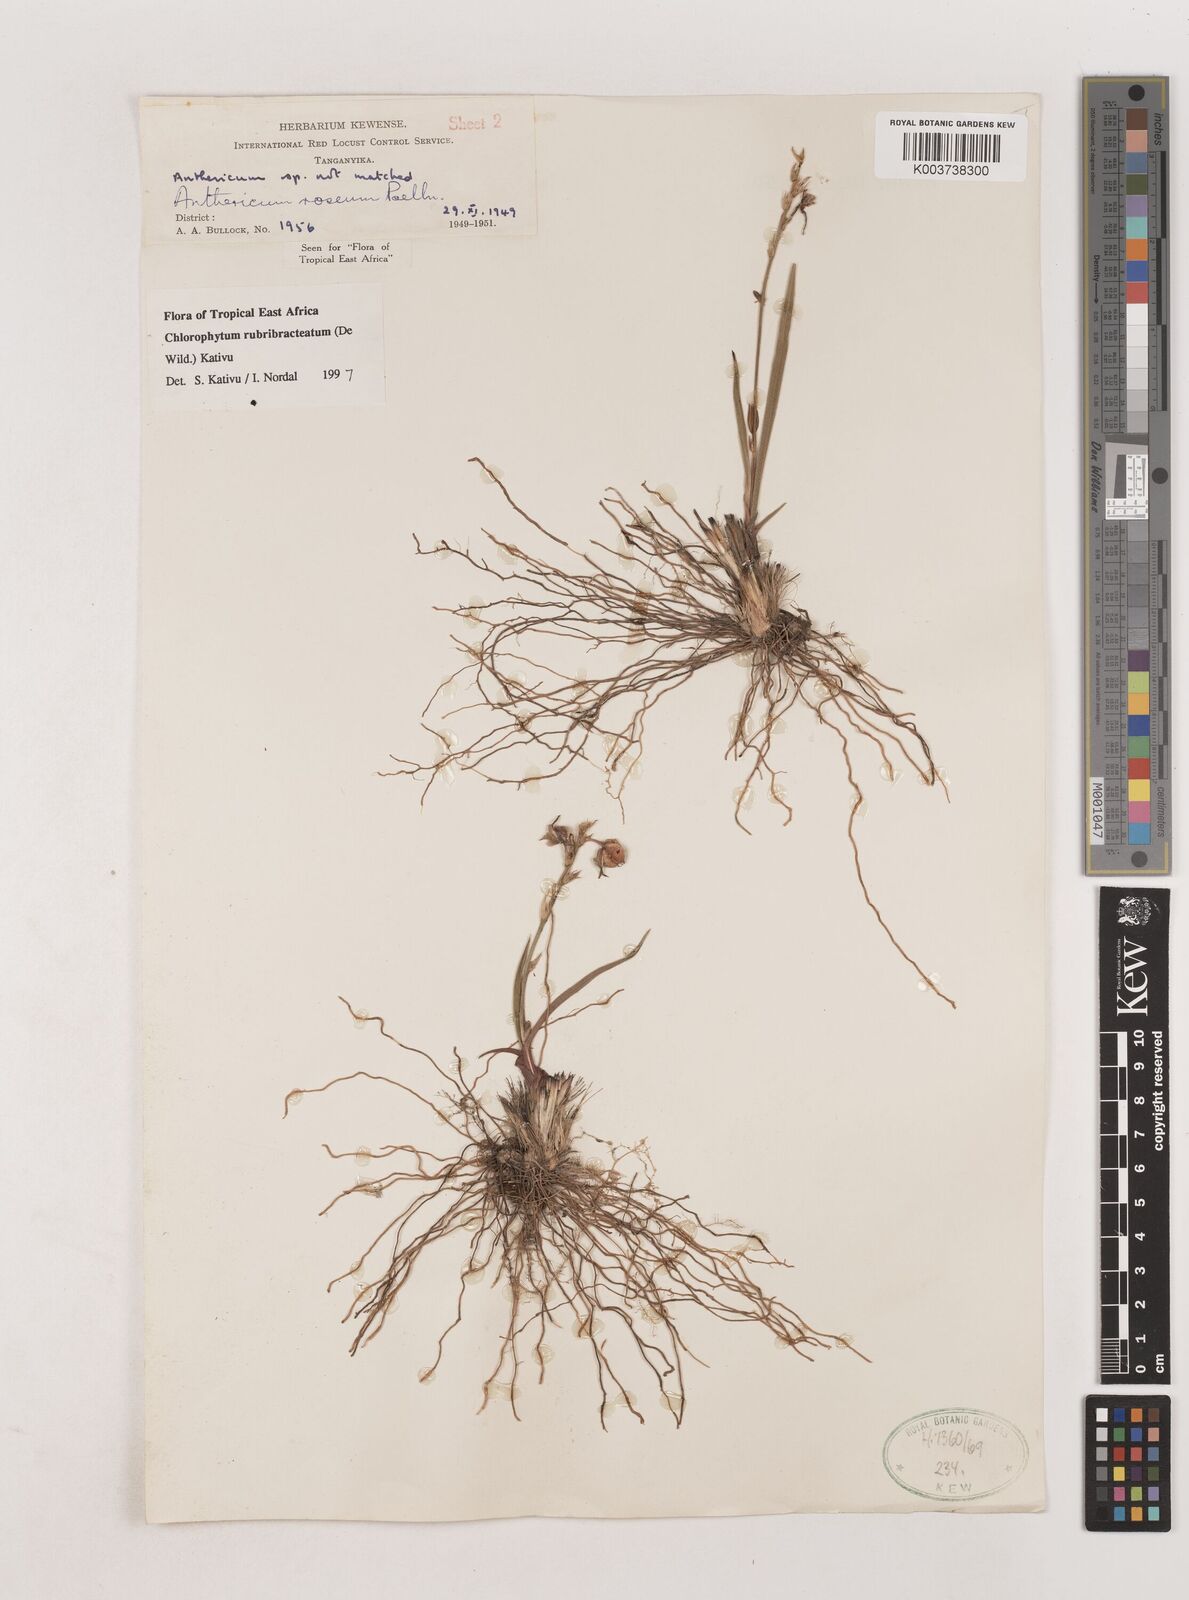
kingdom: Plantae
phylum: Tracheophyta
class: Liliopsida
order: Asparagales
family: Asparagaceae
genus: Chlorophytum
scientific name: Chlorophytum rubribracteatum
